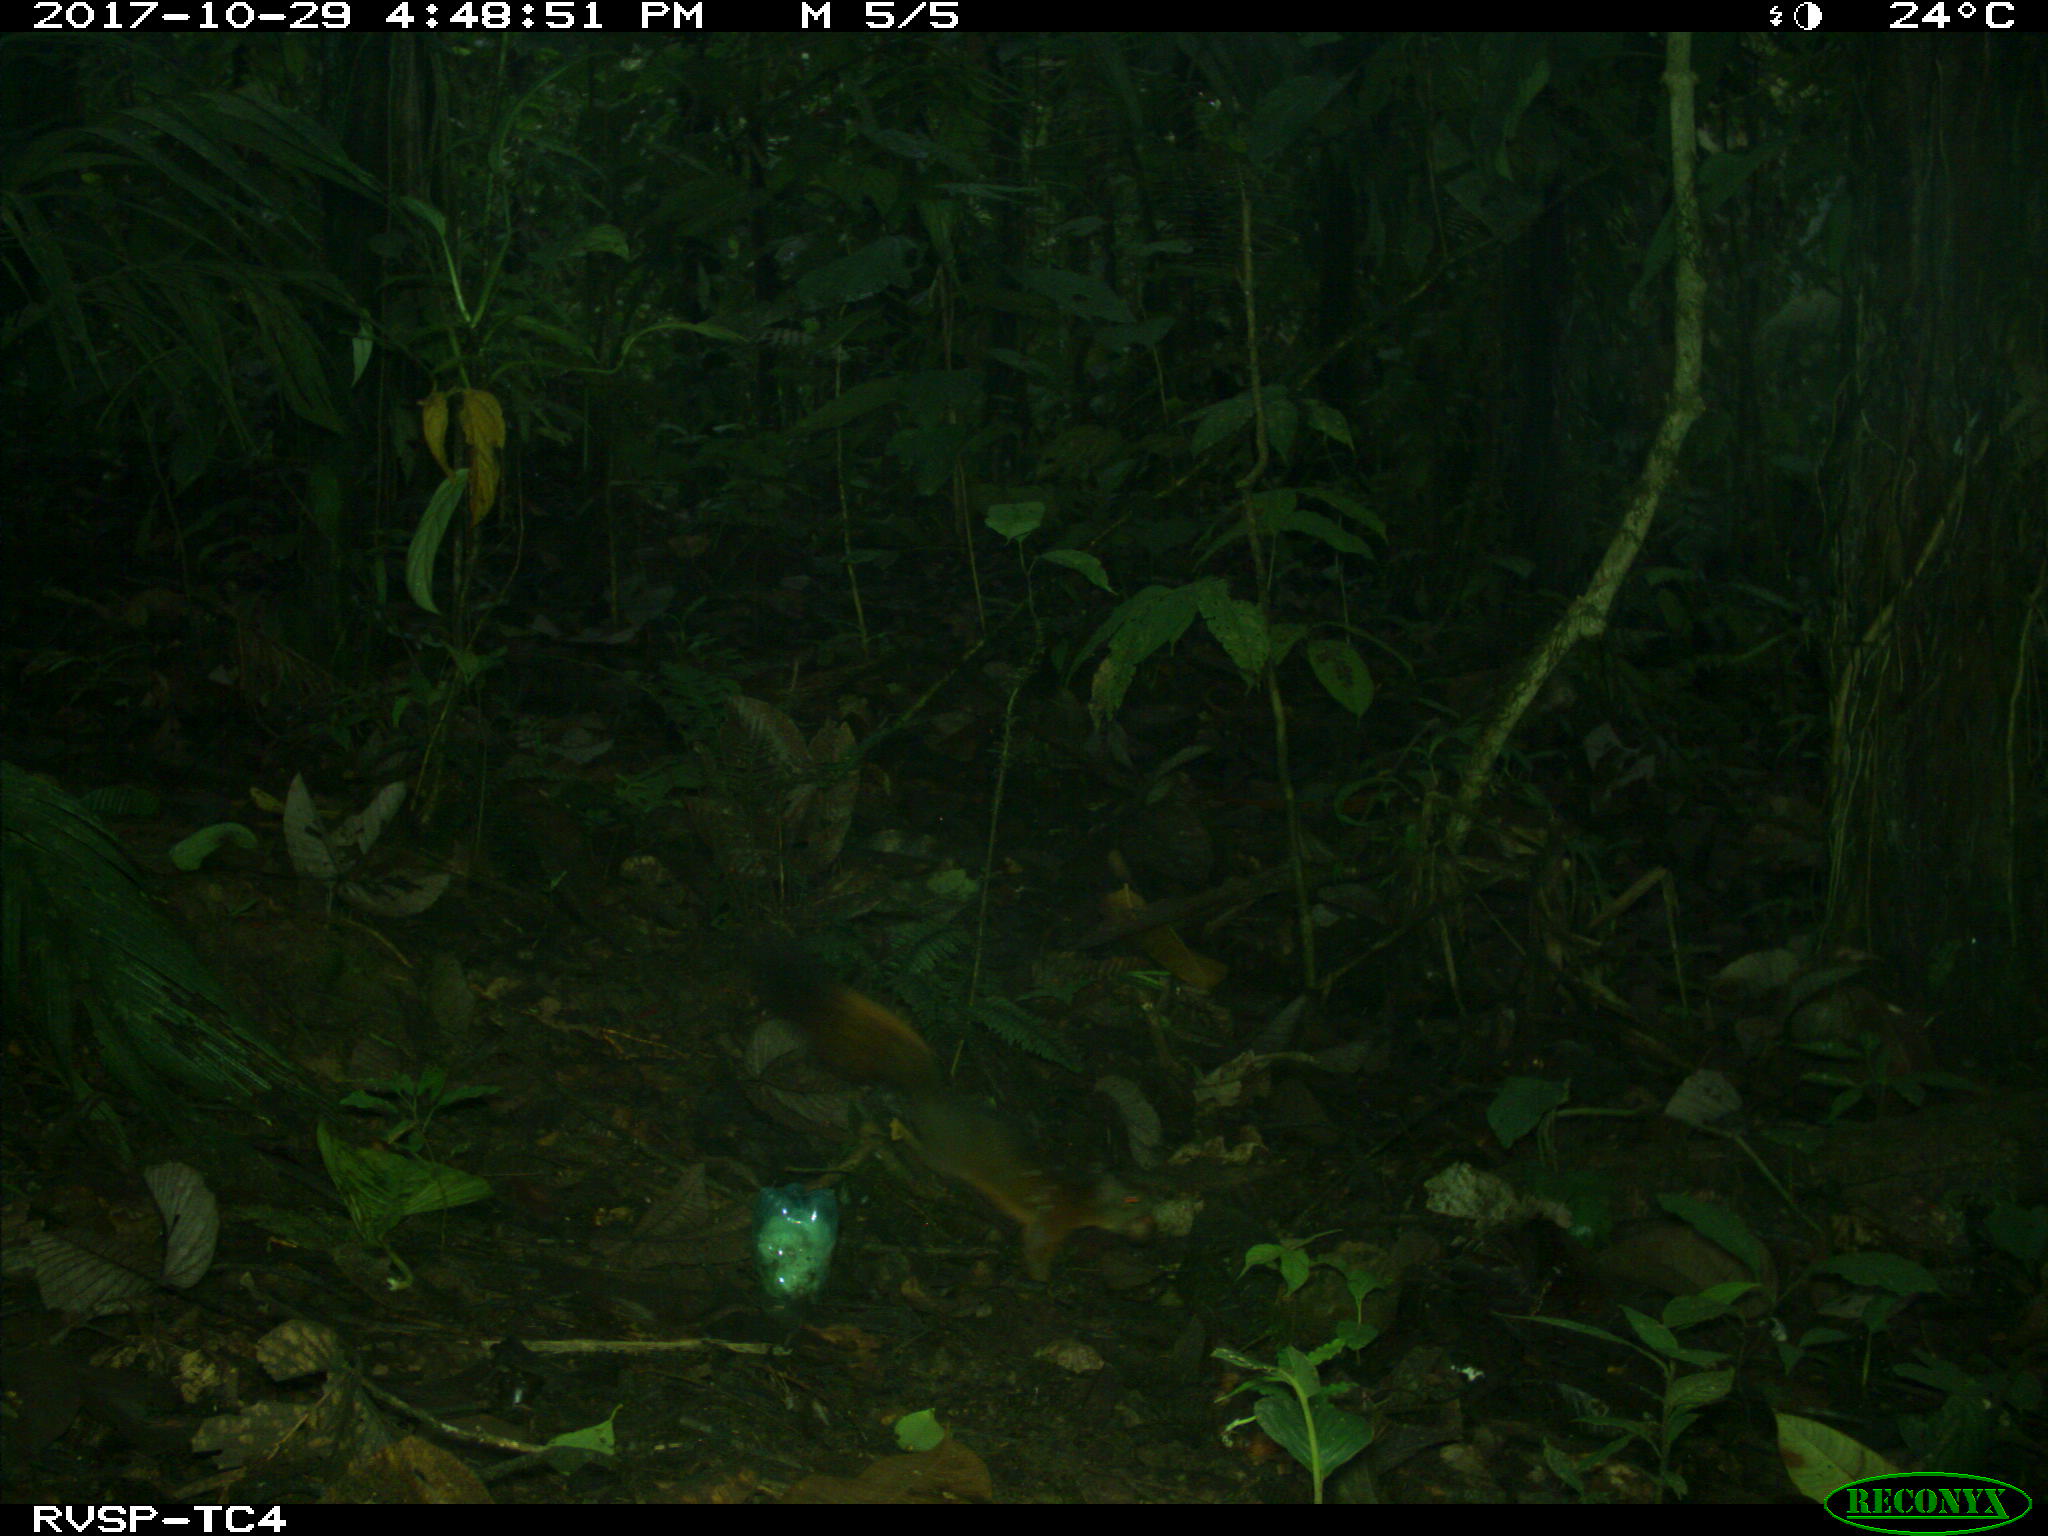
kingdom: Animalia
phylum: Chordata
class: Mammalia
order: Rodentia
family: Sciuridae
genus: Sciurus
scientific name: Sciurus granatensis
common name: Red-tailed squirrel
